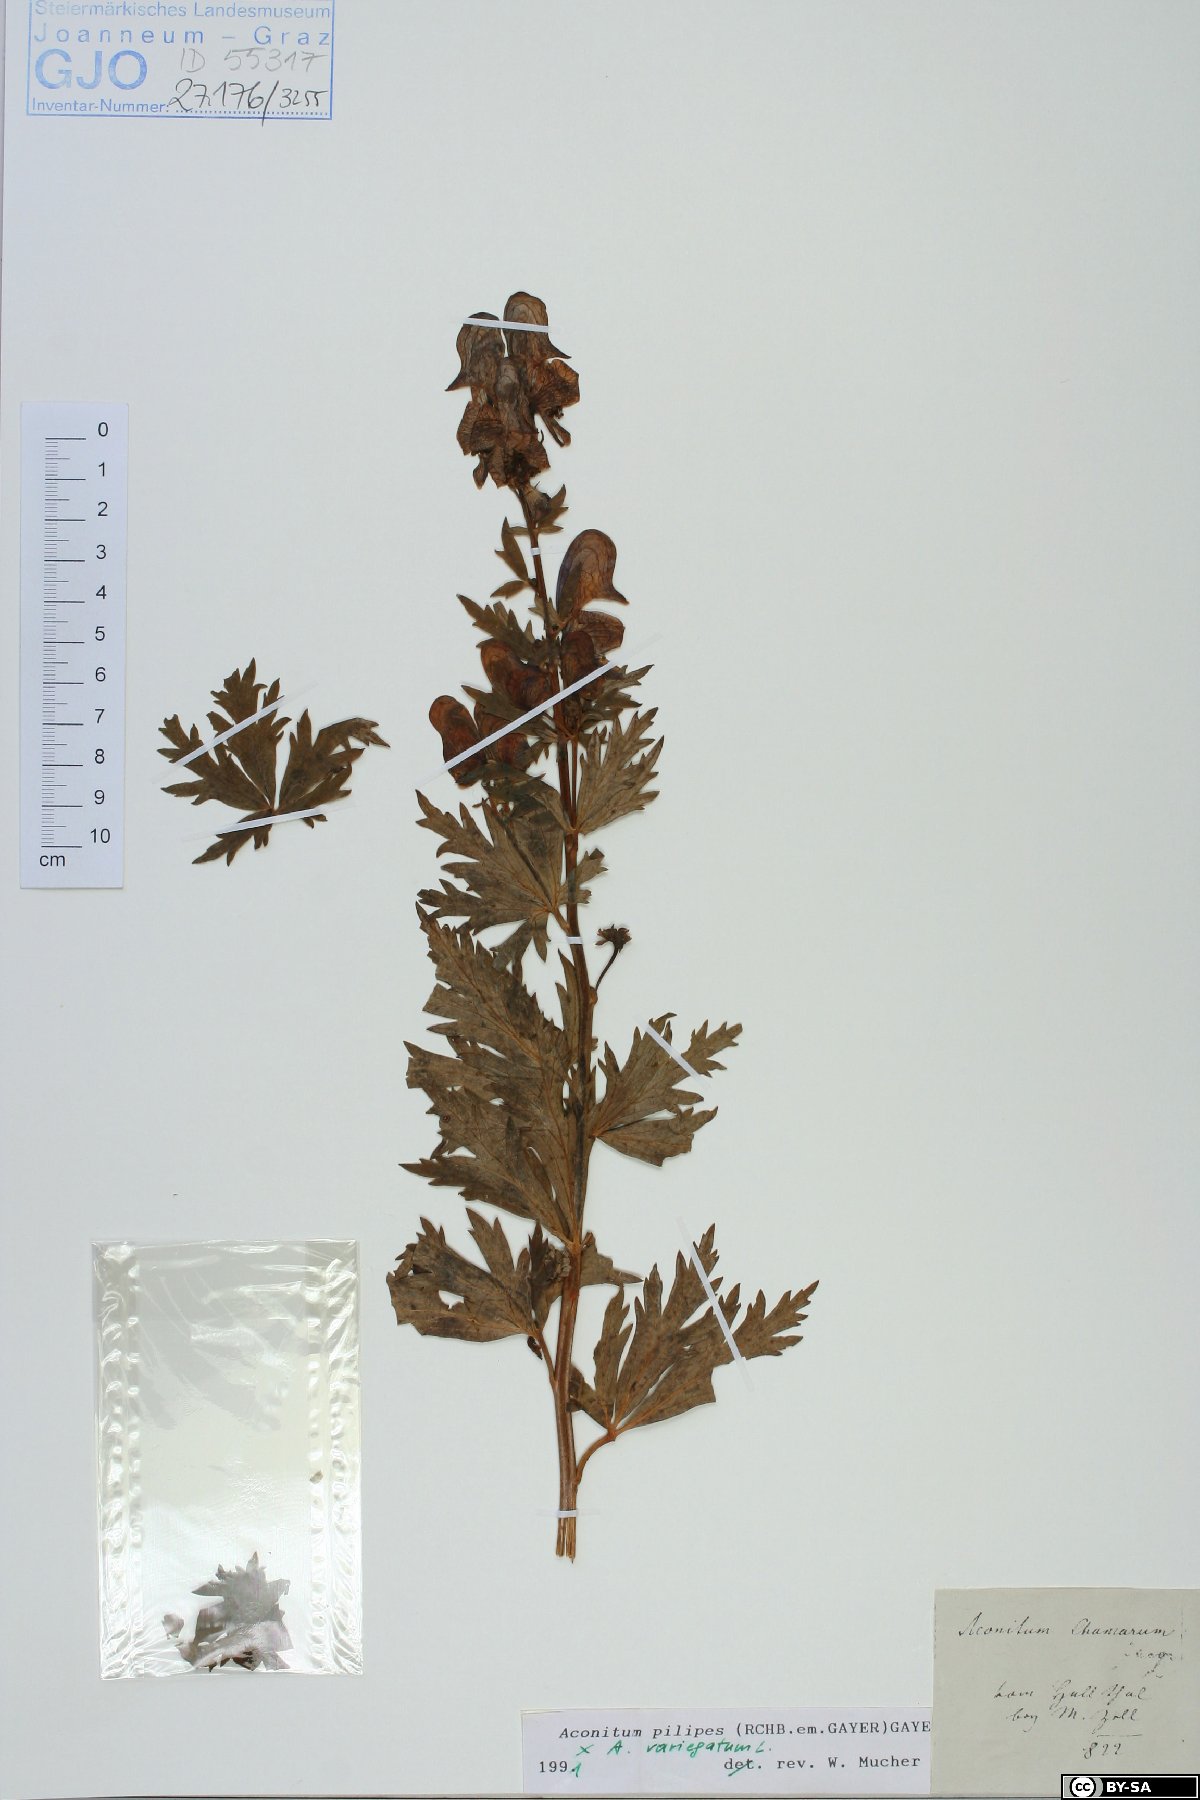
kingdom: Plantae
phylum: Tracheophyta
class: Magnoliopsida
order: Ranunculales
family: Ranunculaceae
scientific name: Ranunculaceae
